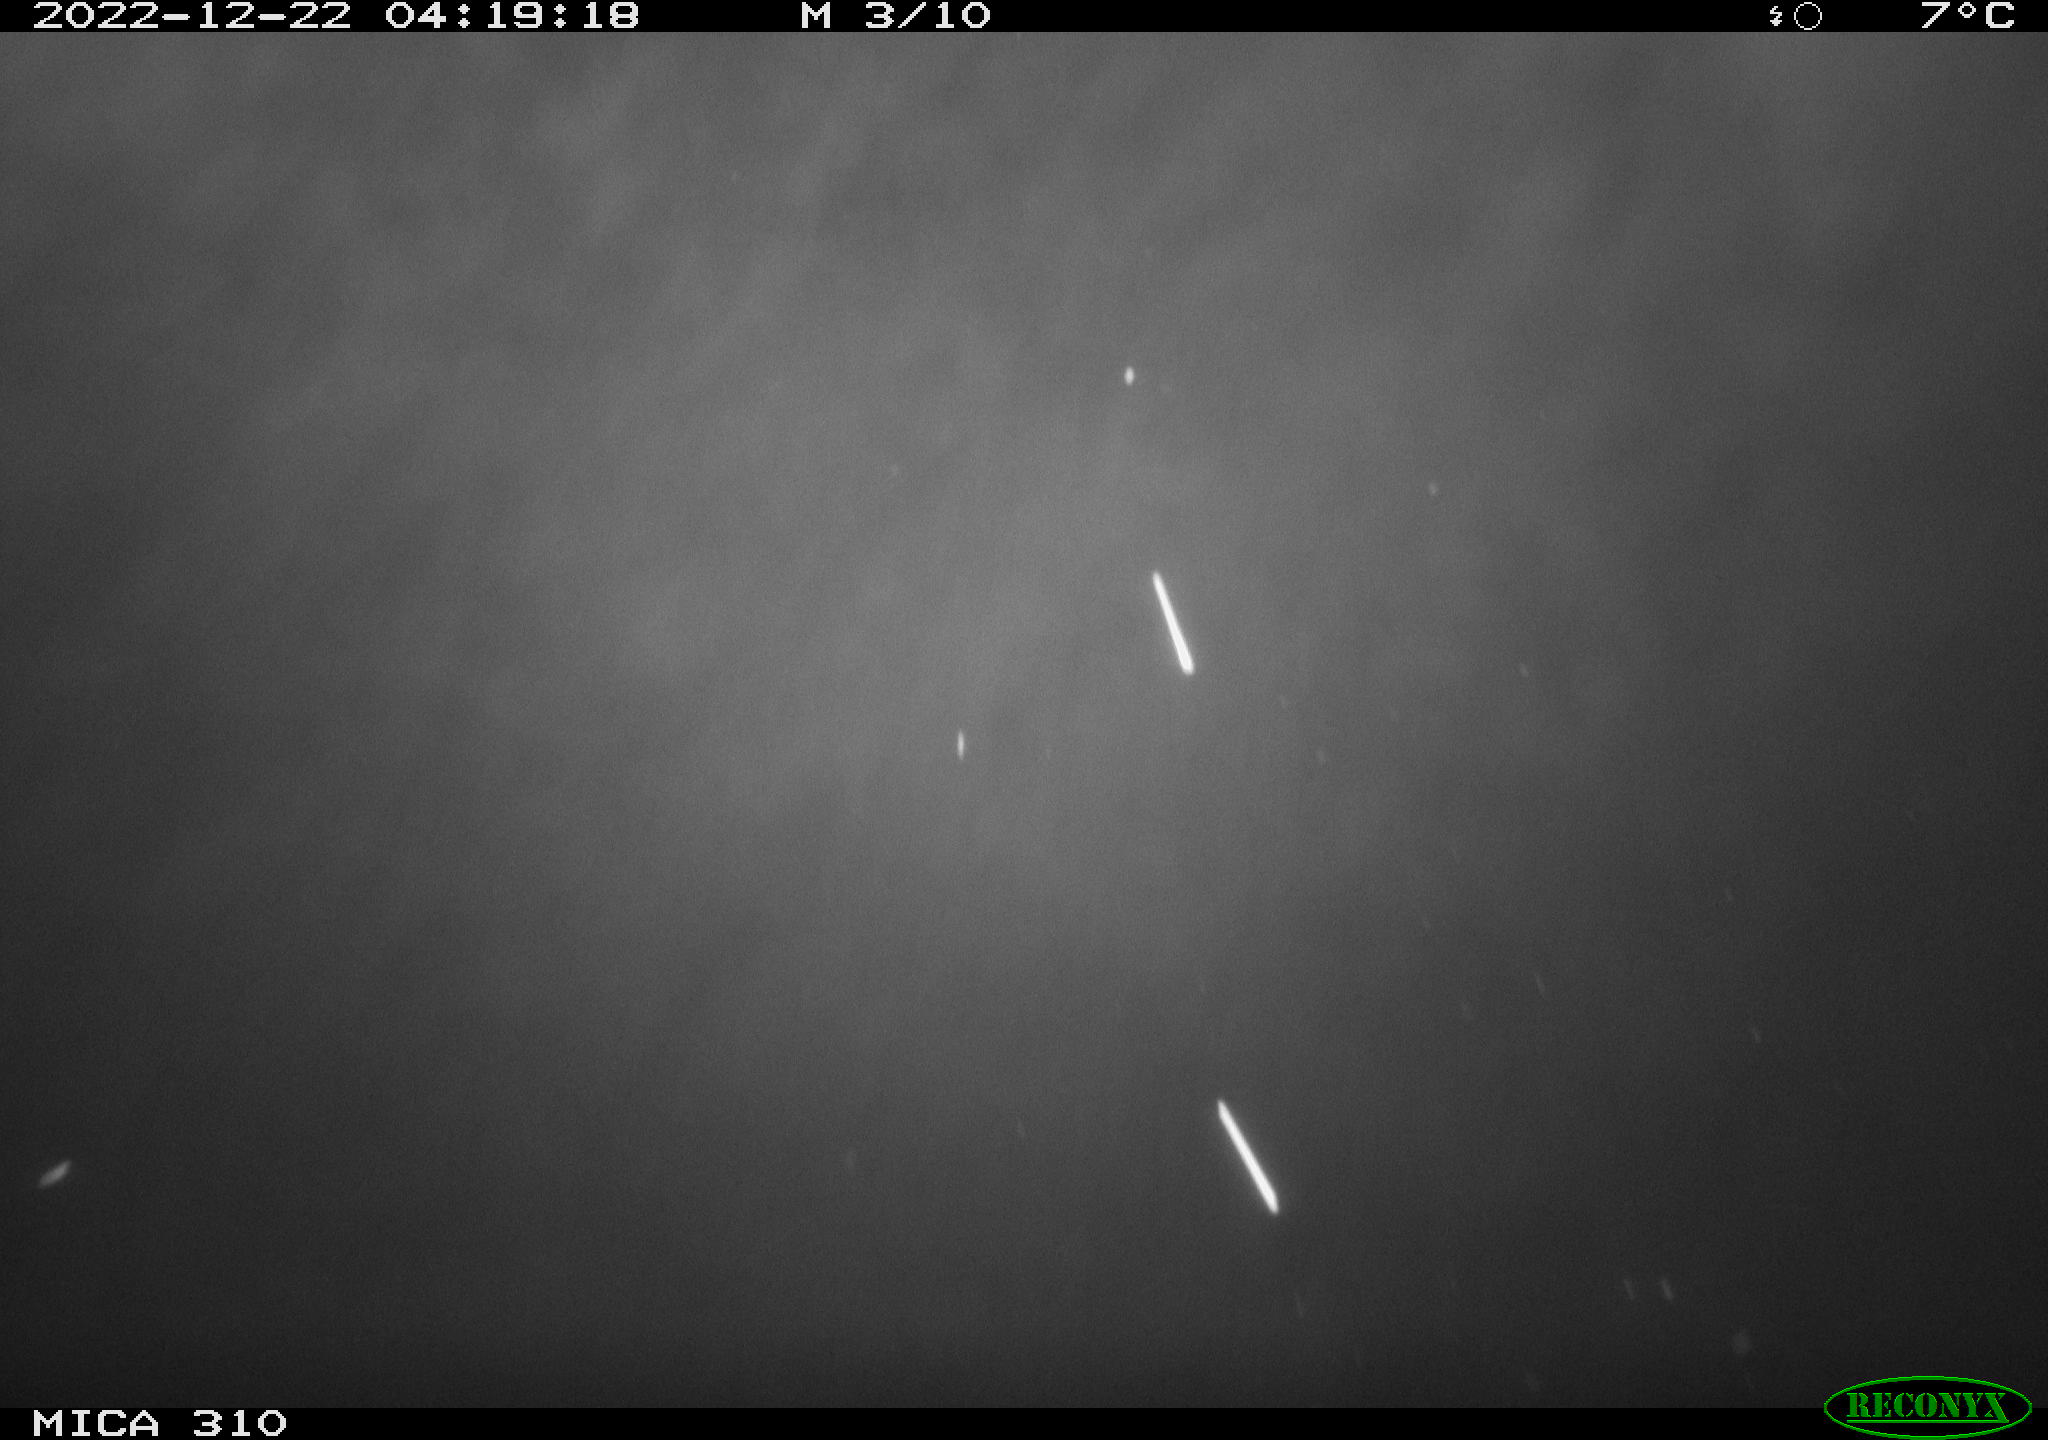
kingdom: Animalia
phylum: Chordata
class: Mammalia
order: Rodentia
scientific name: Rodentia
